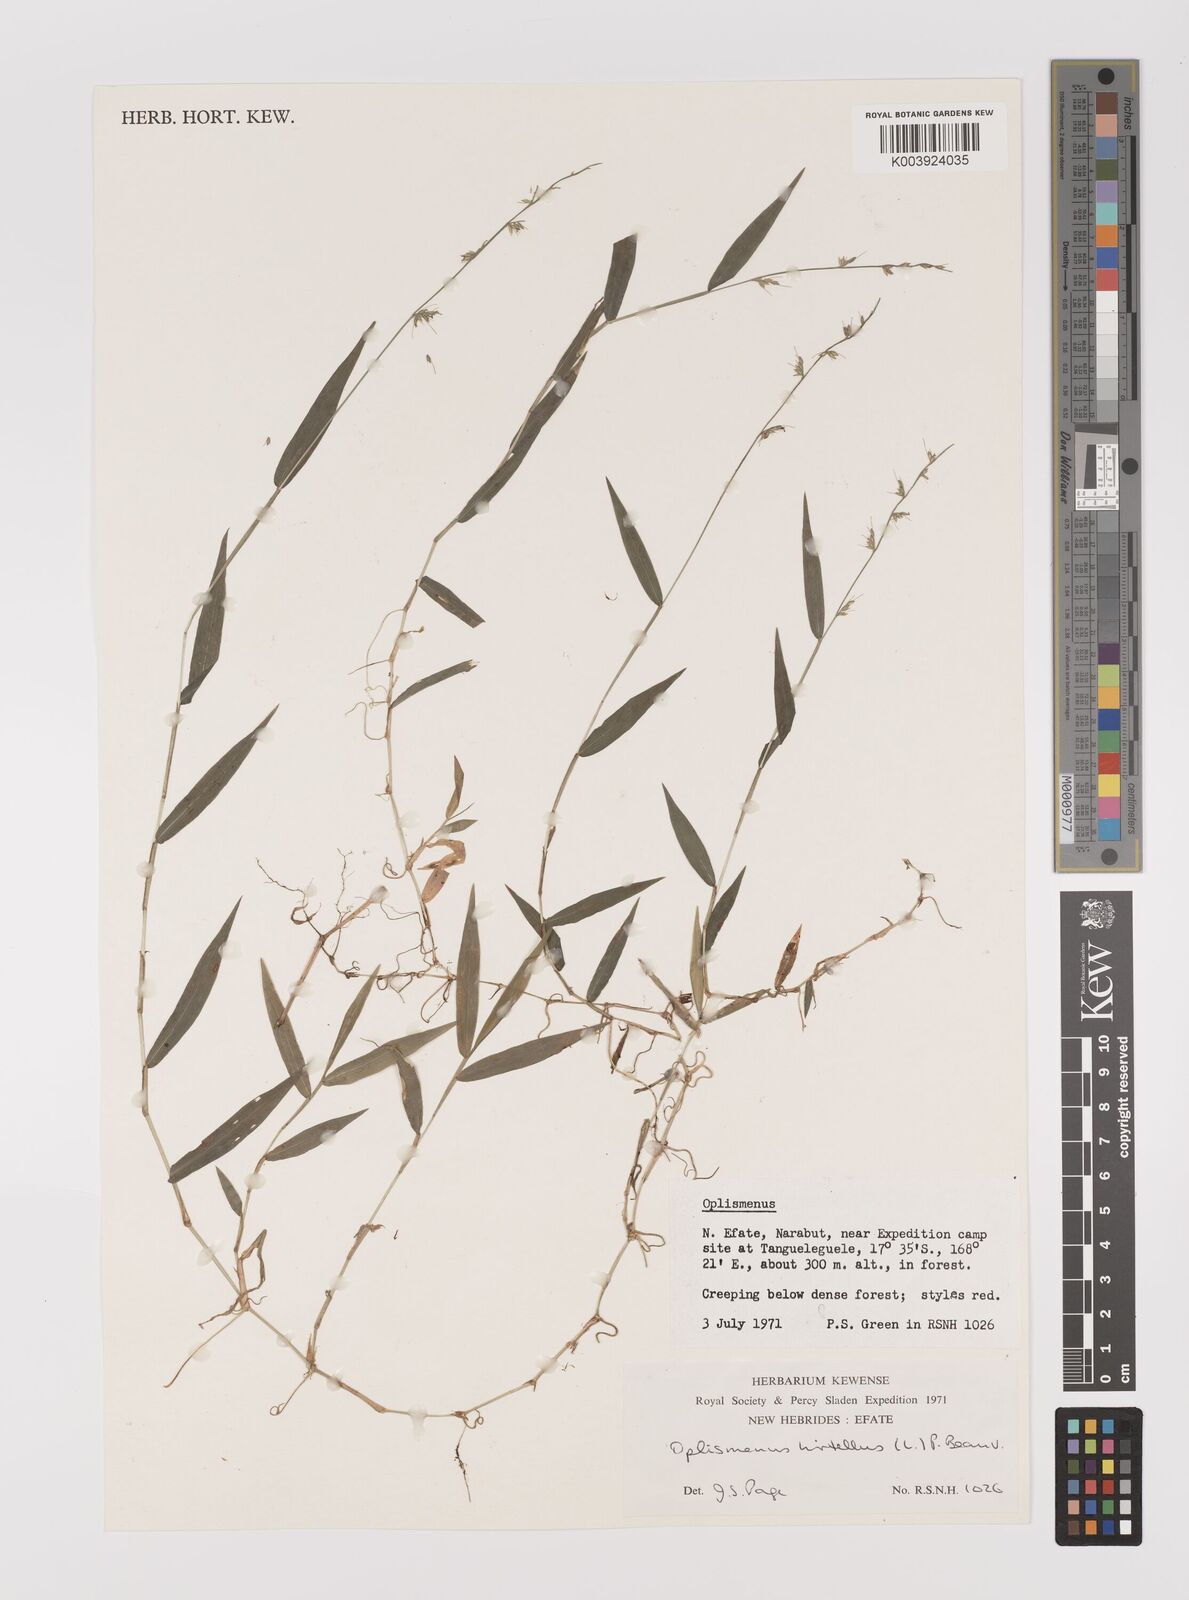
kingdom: Plantae
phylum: Tracheophyta
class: Liliopsida
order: Poales
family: Poaceae
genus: Oplismenus
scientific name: Oplismenus hirtellus
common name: Basketgrass
